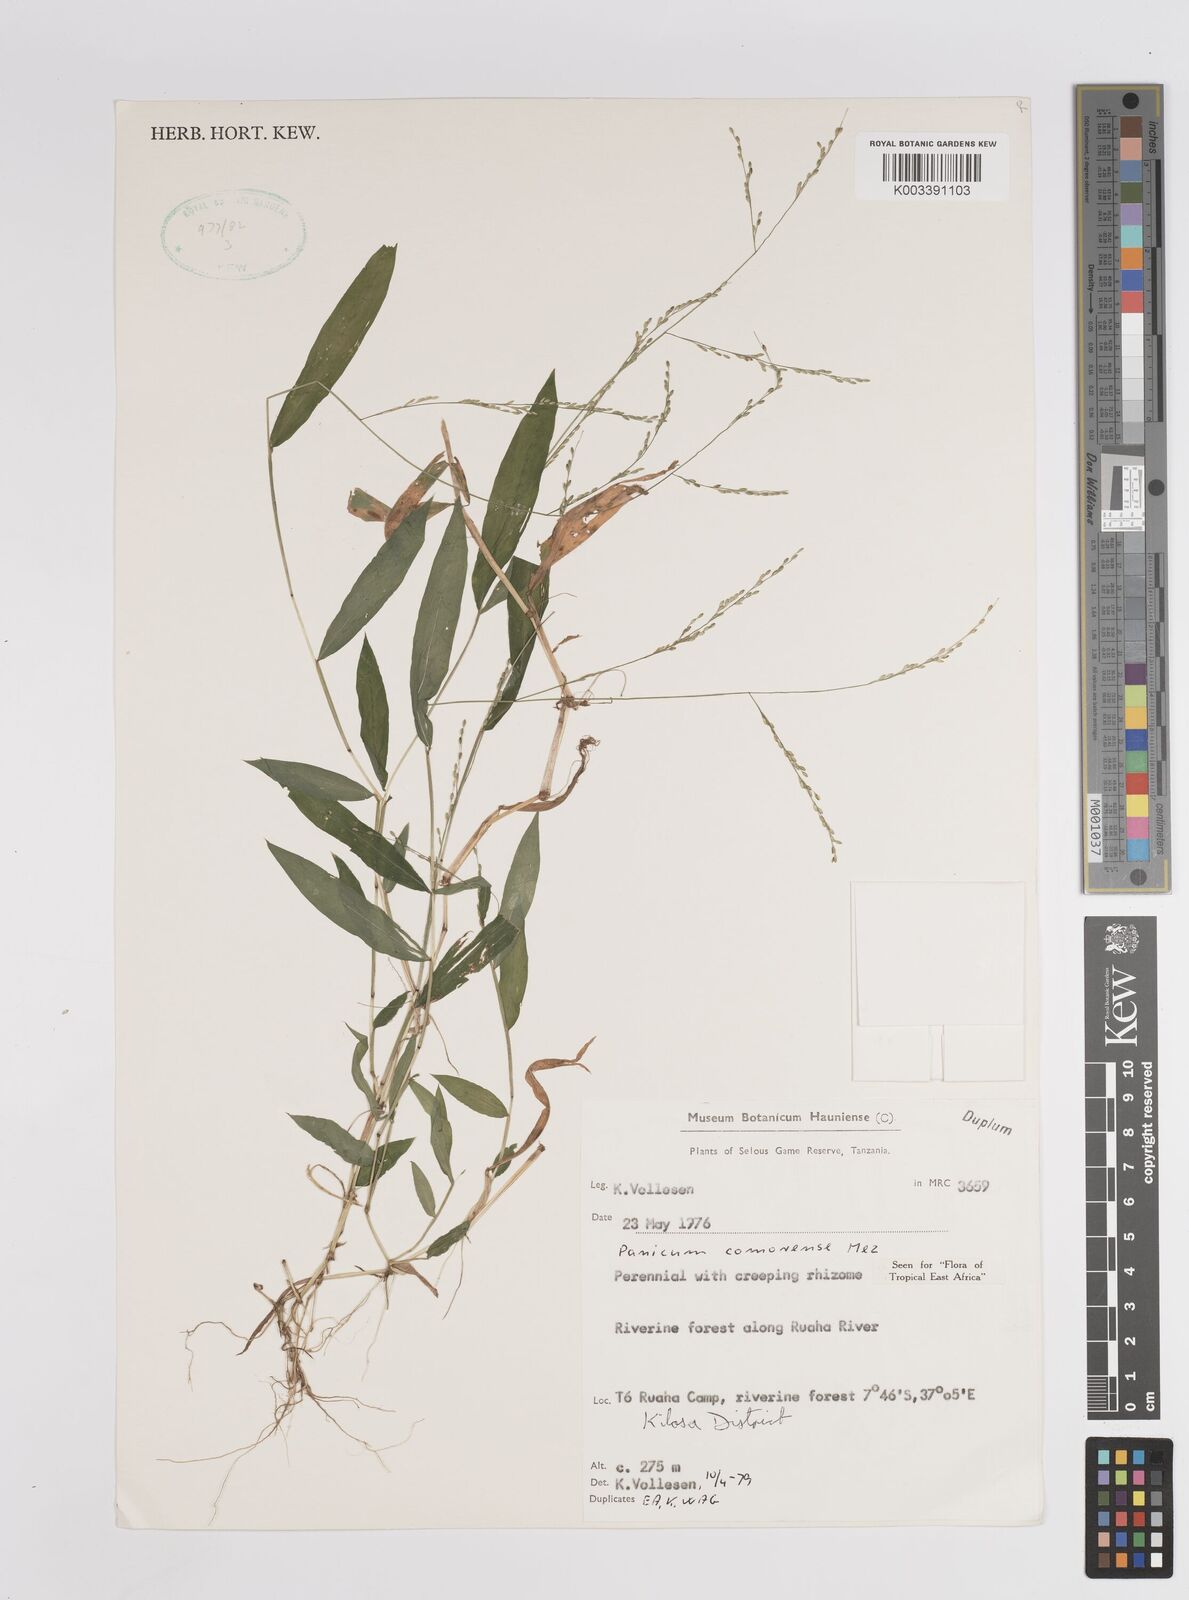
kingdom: Plantae
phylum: Tracheophyta
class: Liliopsida
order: Poales
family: Poaceae
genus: Panicum
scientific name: Panicum comorense
